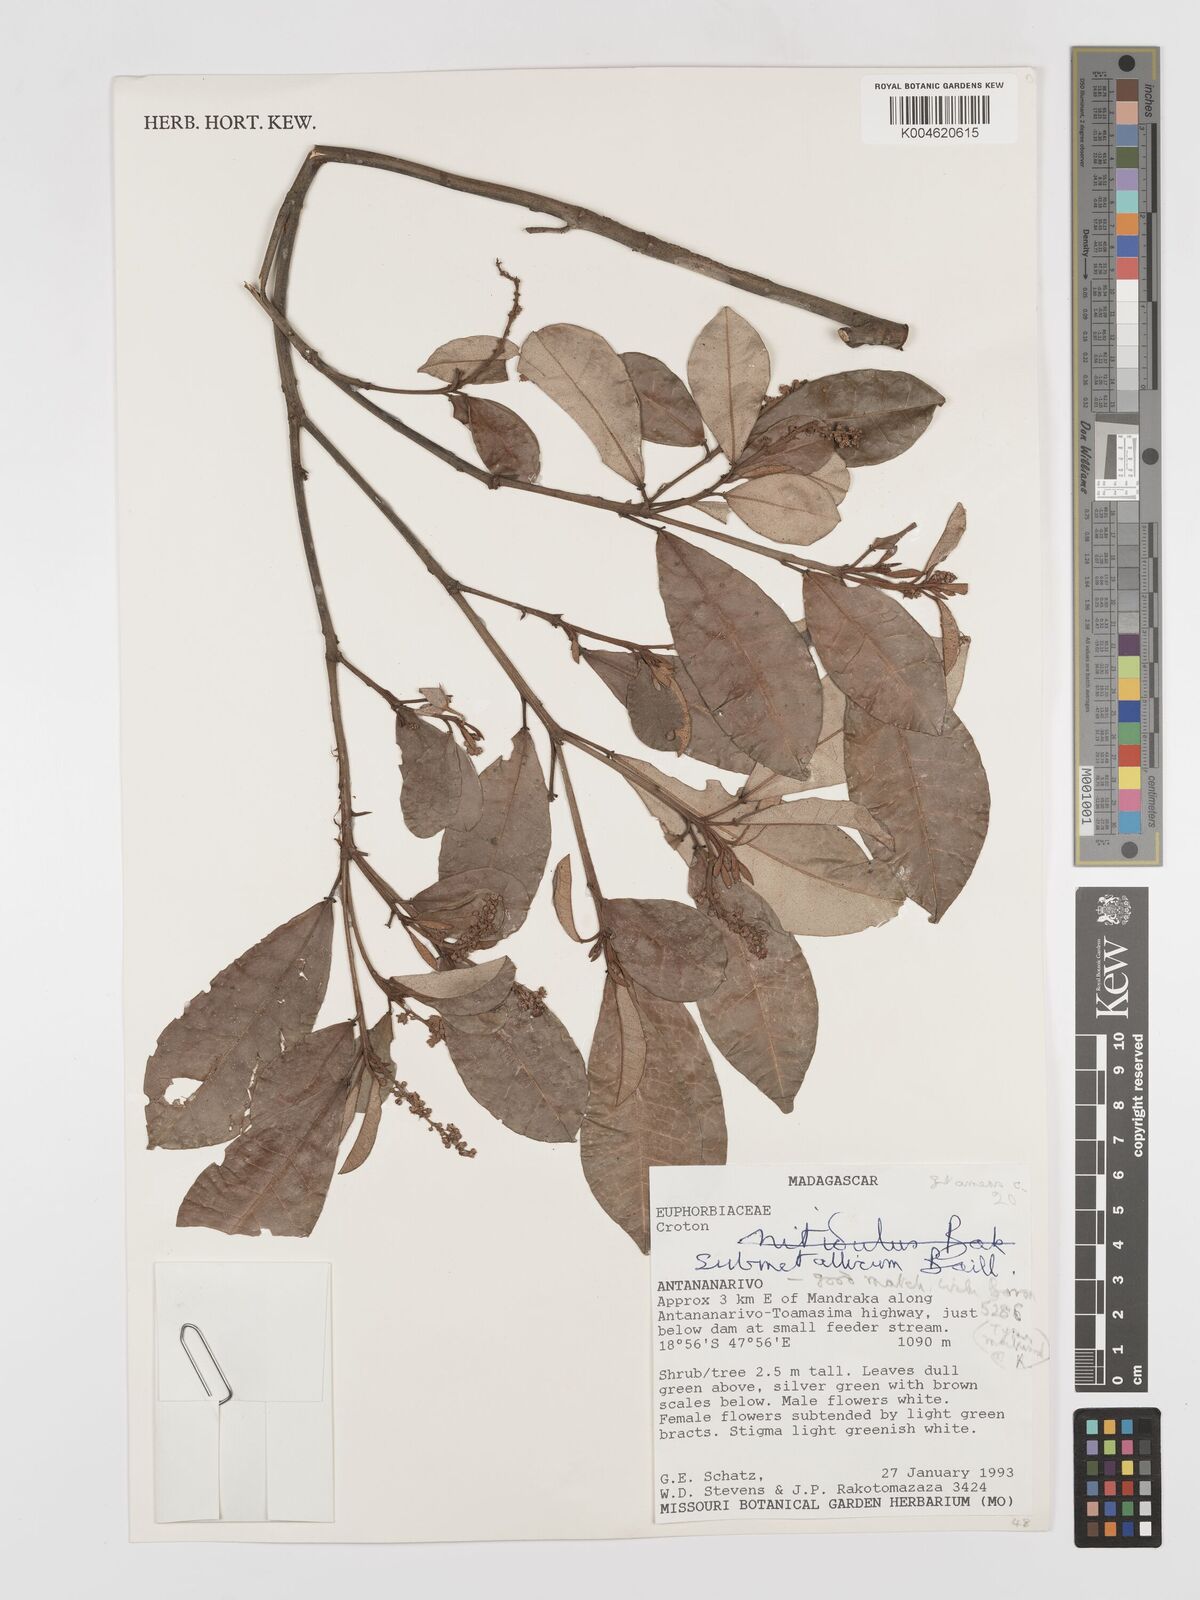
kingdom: Plantae
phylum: Tracheophyta
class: Magnoliopsida
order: Malpighiales
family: Euphorbiaceae
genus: Croton
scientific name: Croton submetallicus
